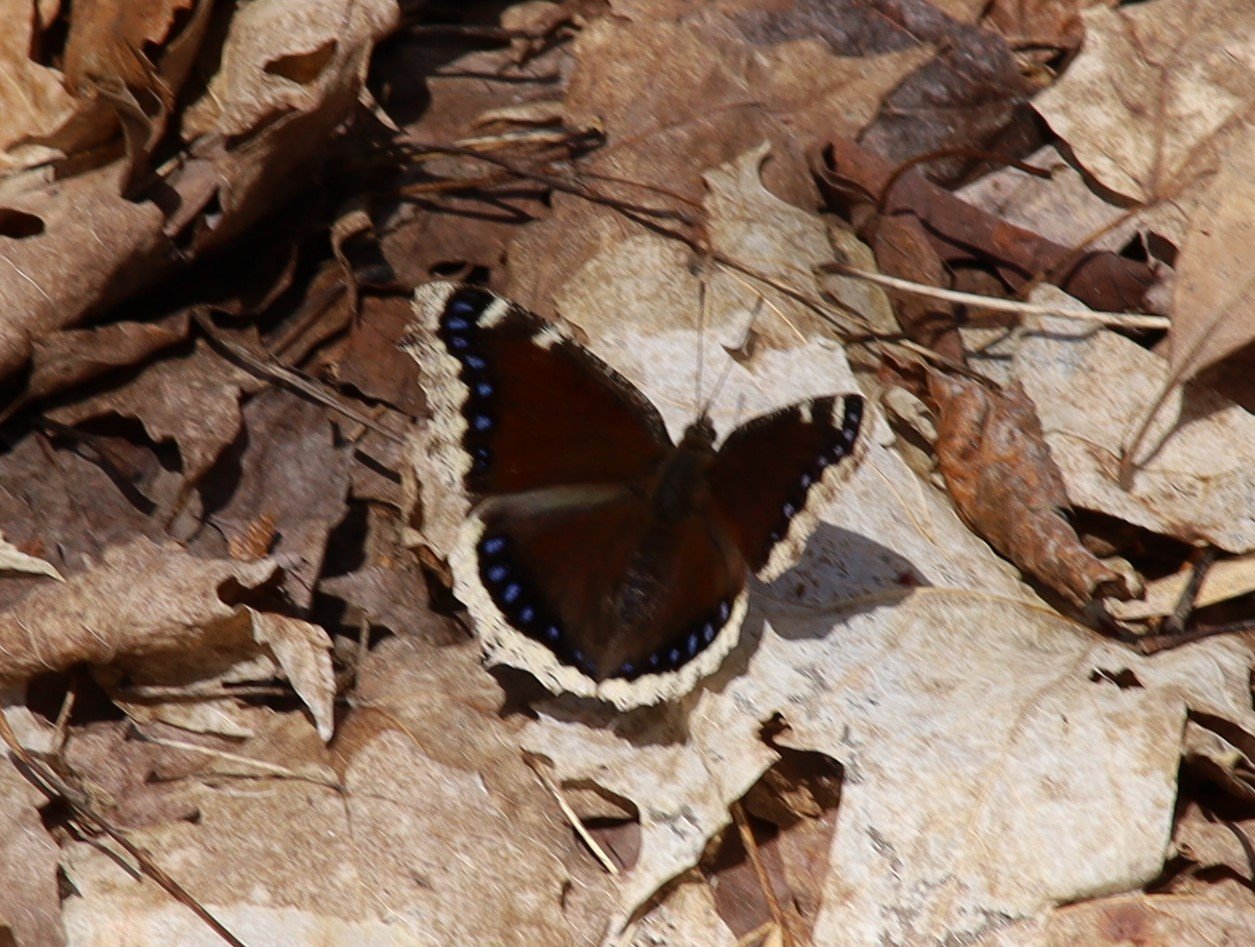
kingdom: Animalia
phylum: Arthropoda
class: Insecta
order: Lepidoptera
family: Nymphalidae
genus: Nymphalis
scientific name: Nymphalis antiopa
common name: Mourning Cloak
